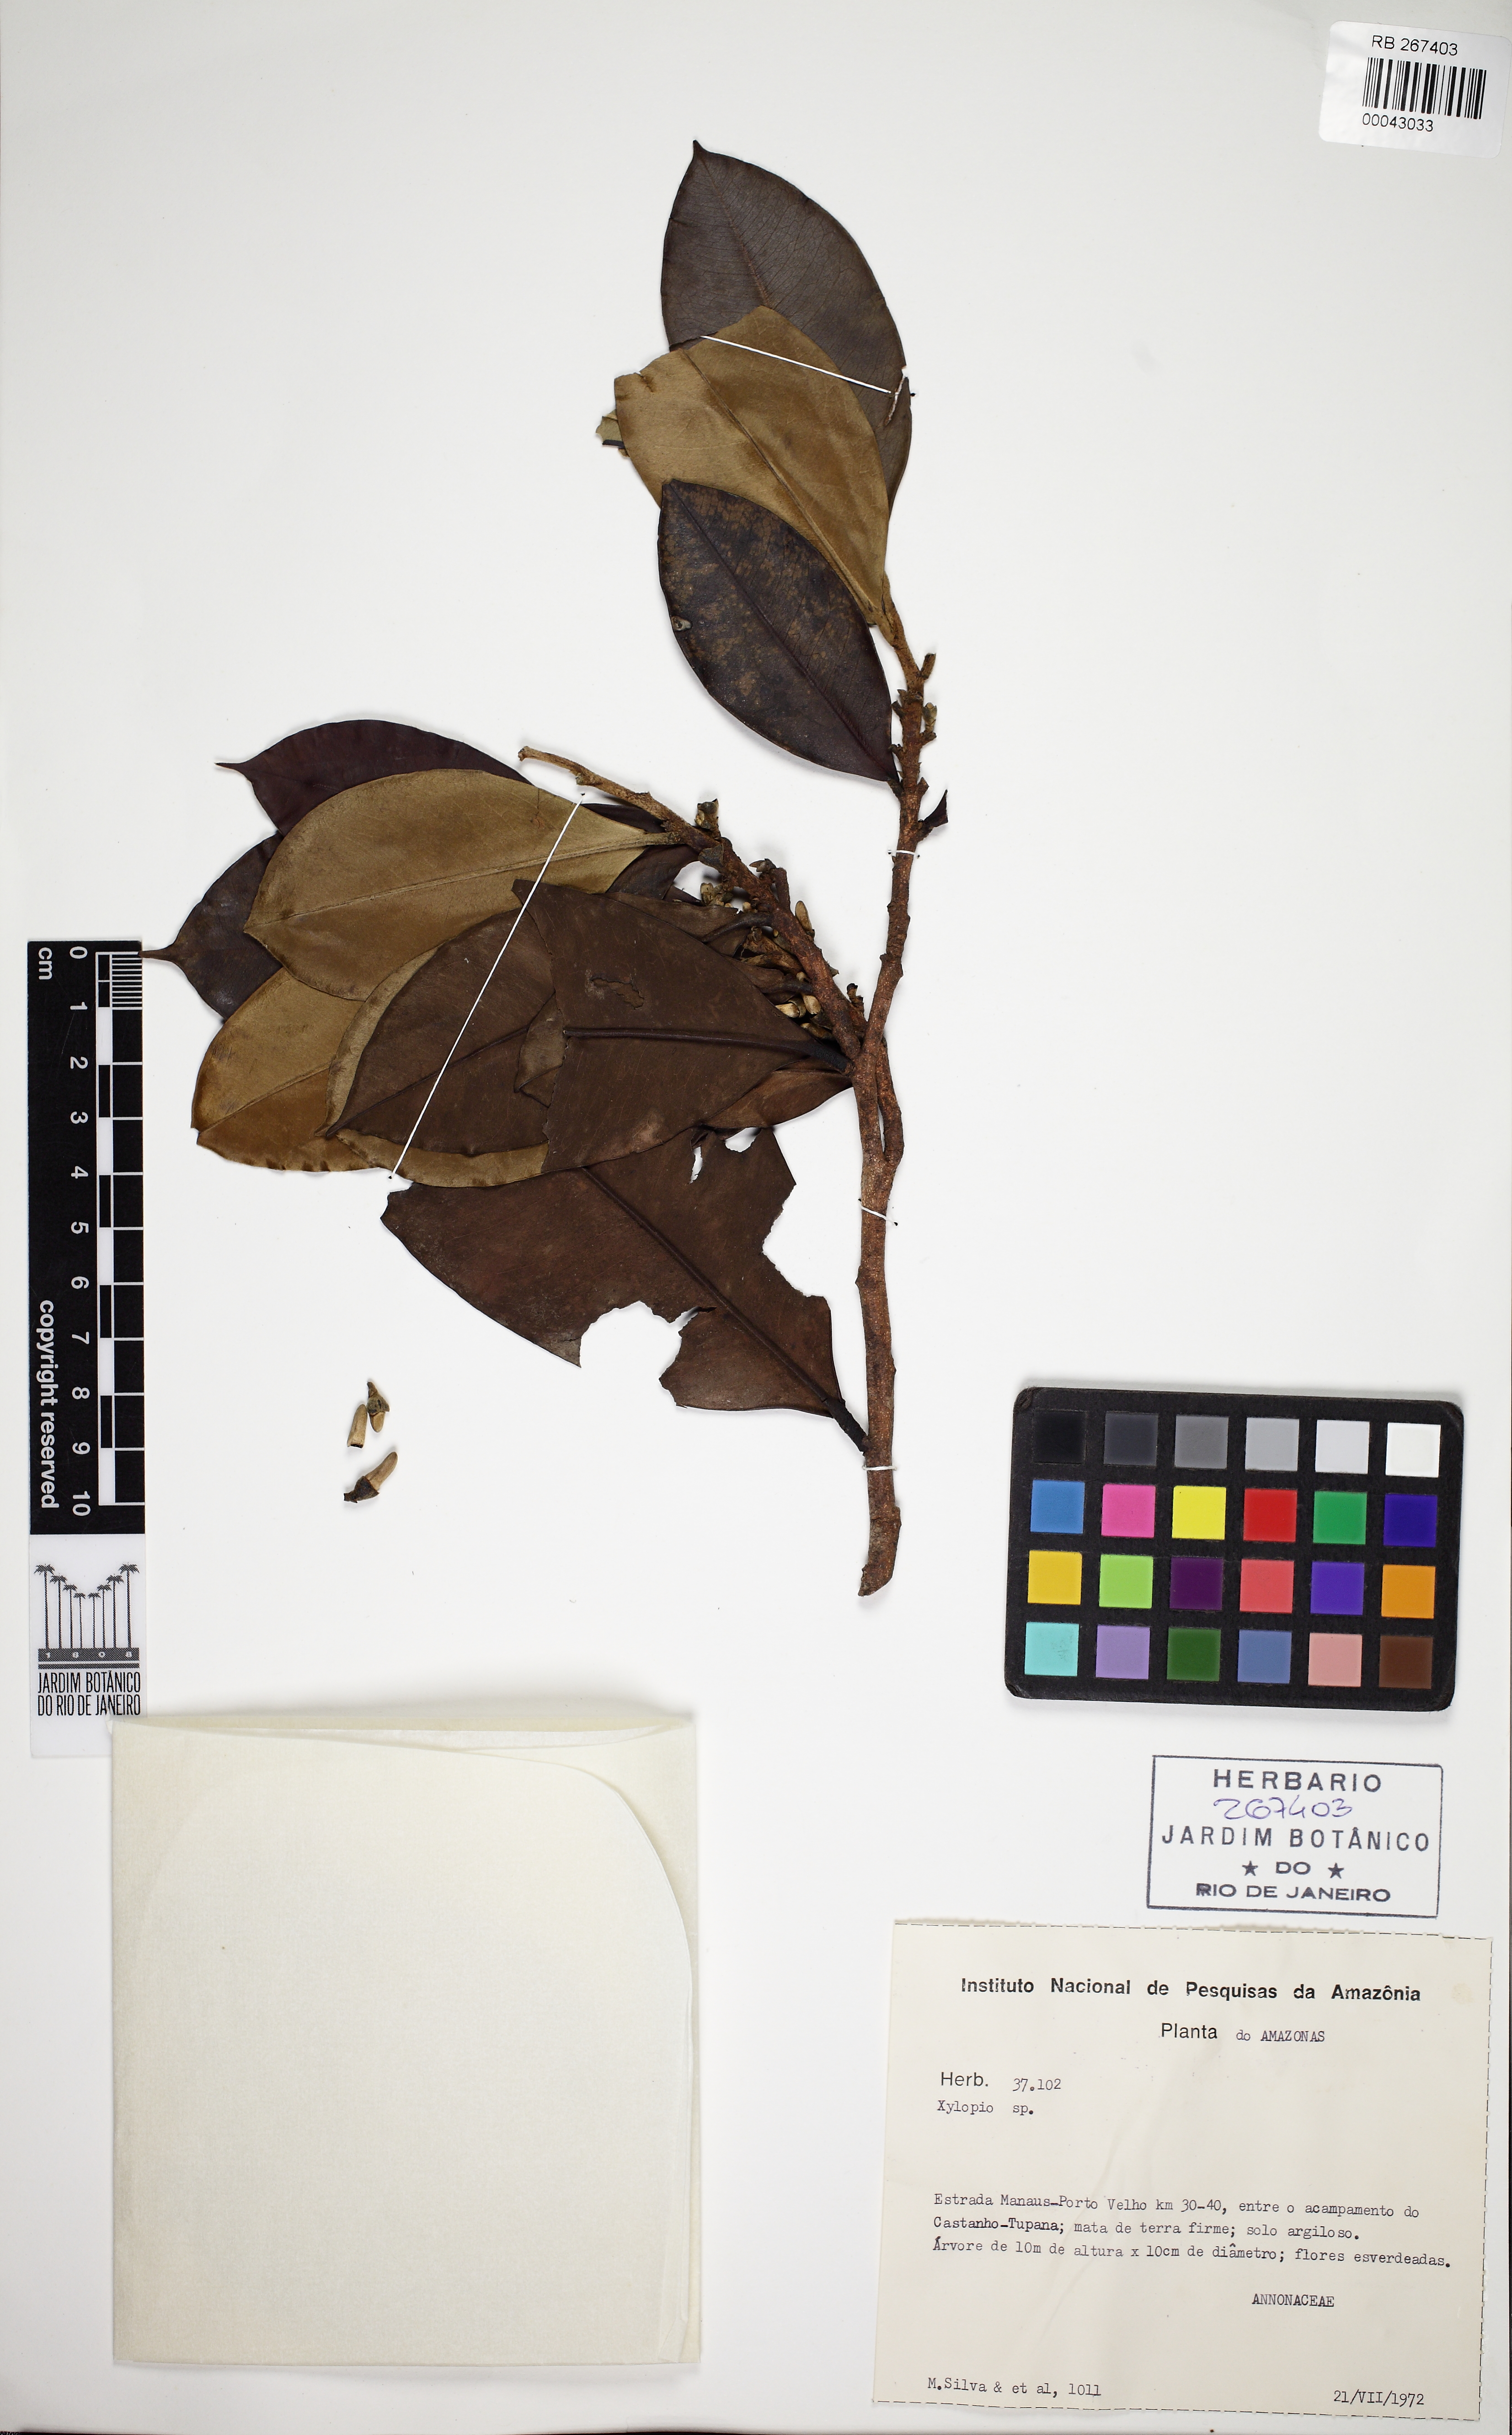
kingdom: Plantae
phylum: Tracheophyta
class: Magnoliopsida
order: Magnoliales
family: Annonaceae
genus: Xylopia
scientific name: Xylopia nitida
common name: White kuyama
